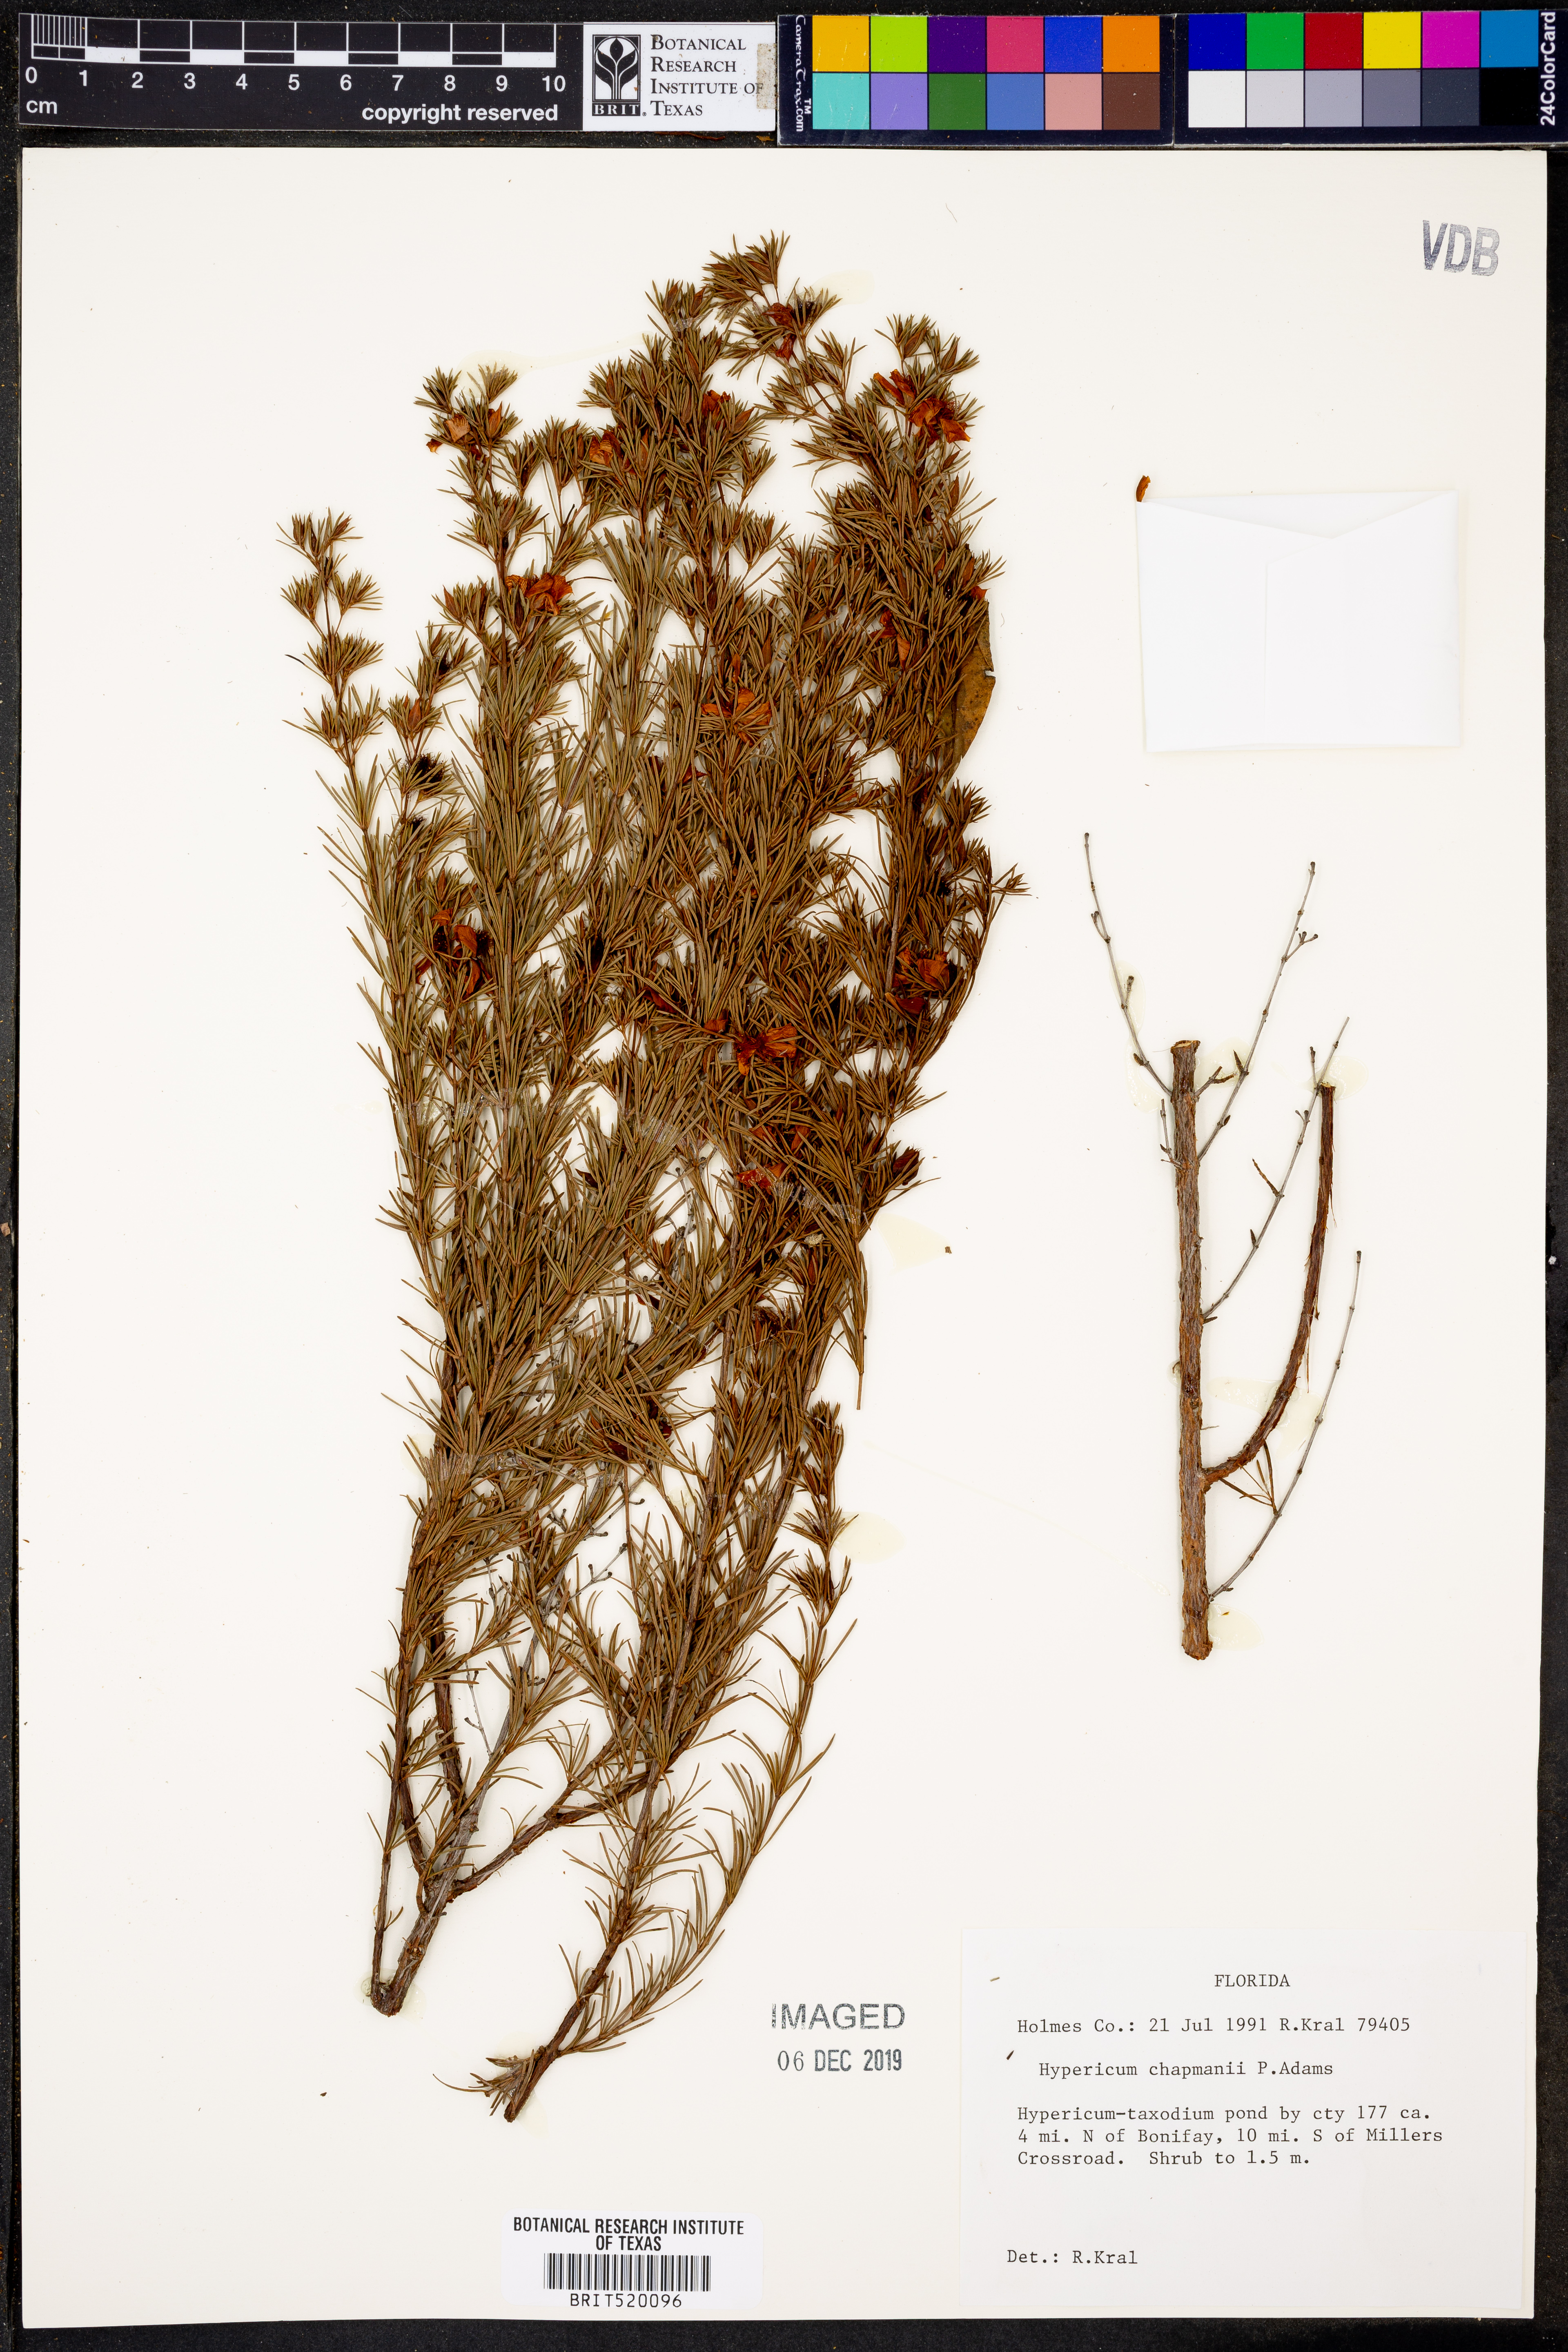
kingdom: Plantae
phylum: Tracheophyta
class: Magnoliopsida
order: Malpighiales
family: Hypericaceae
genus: Hypericum
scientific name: Hypericum chapmanii
